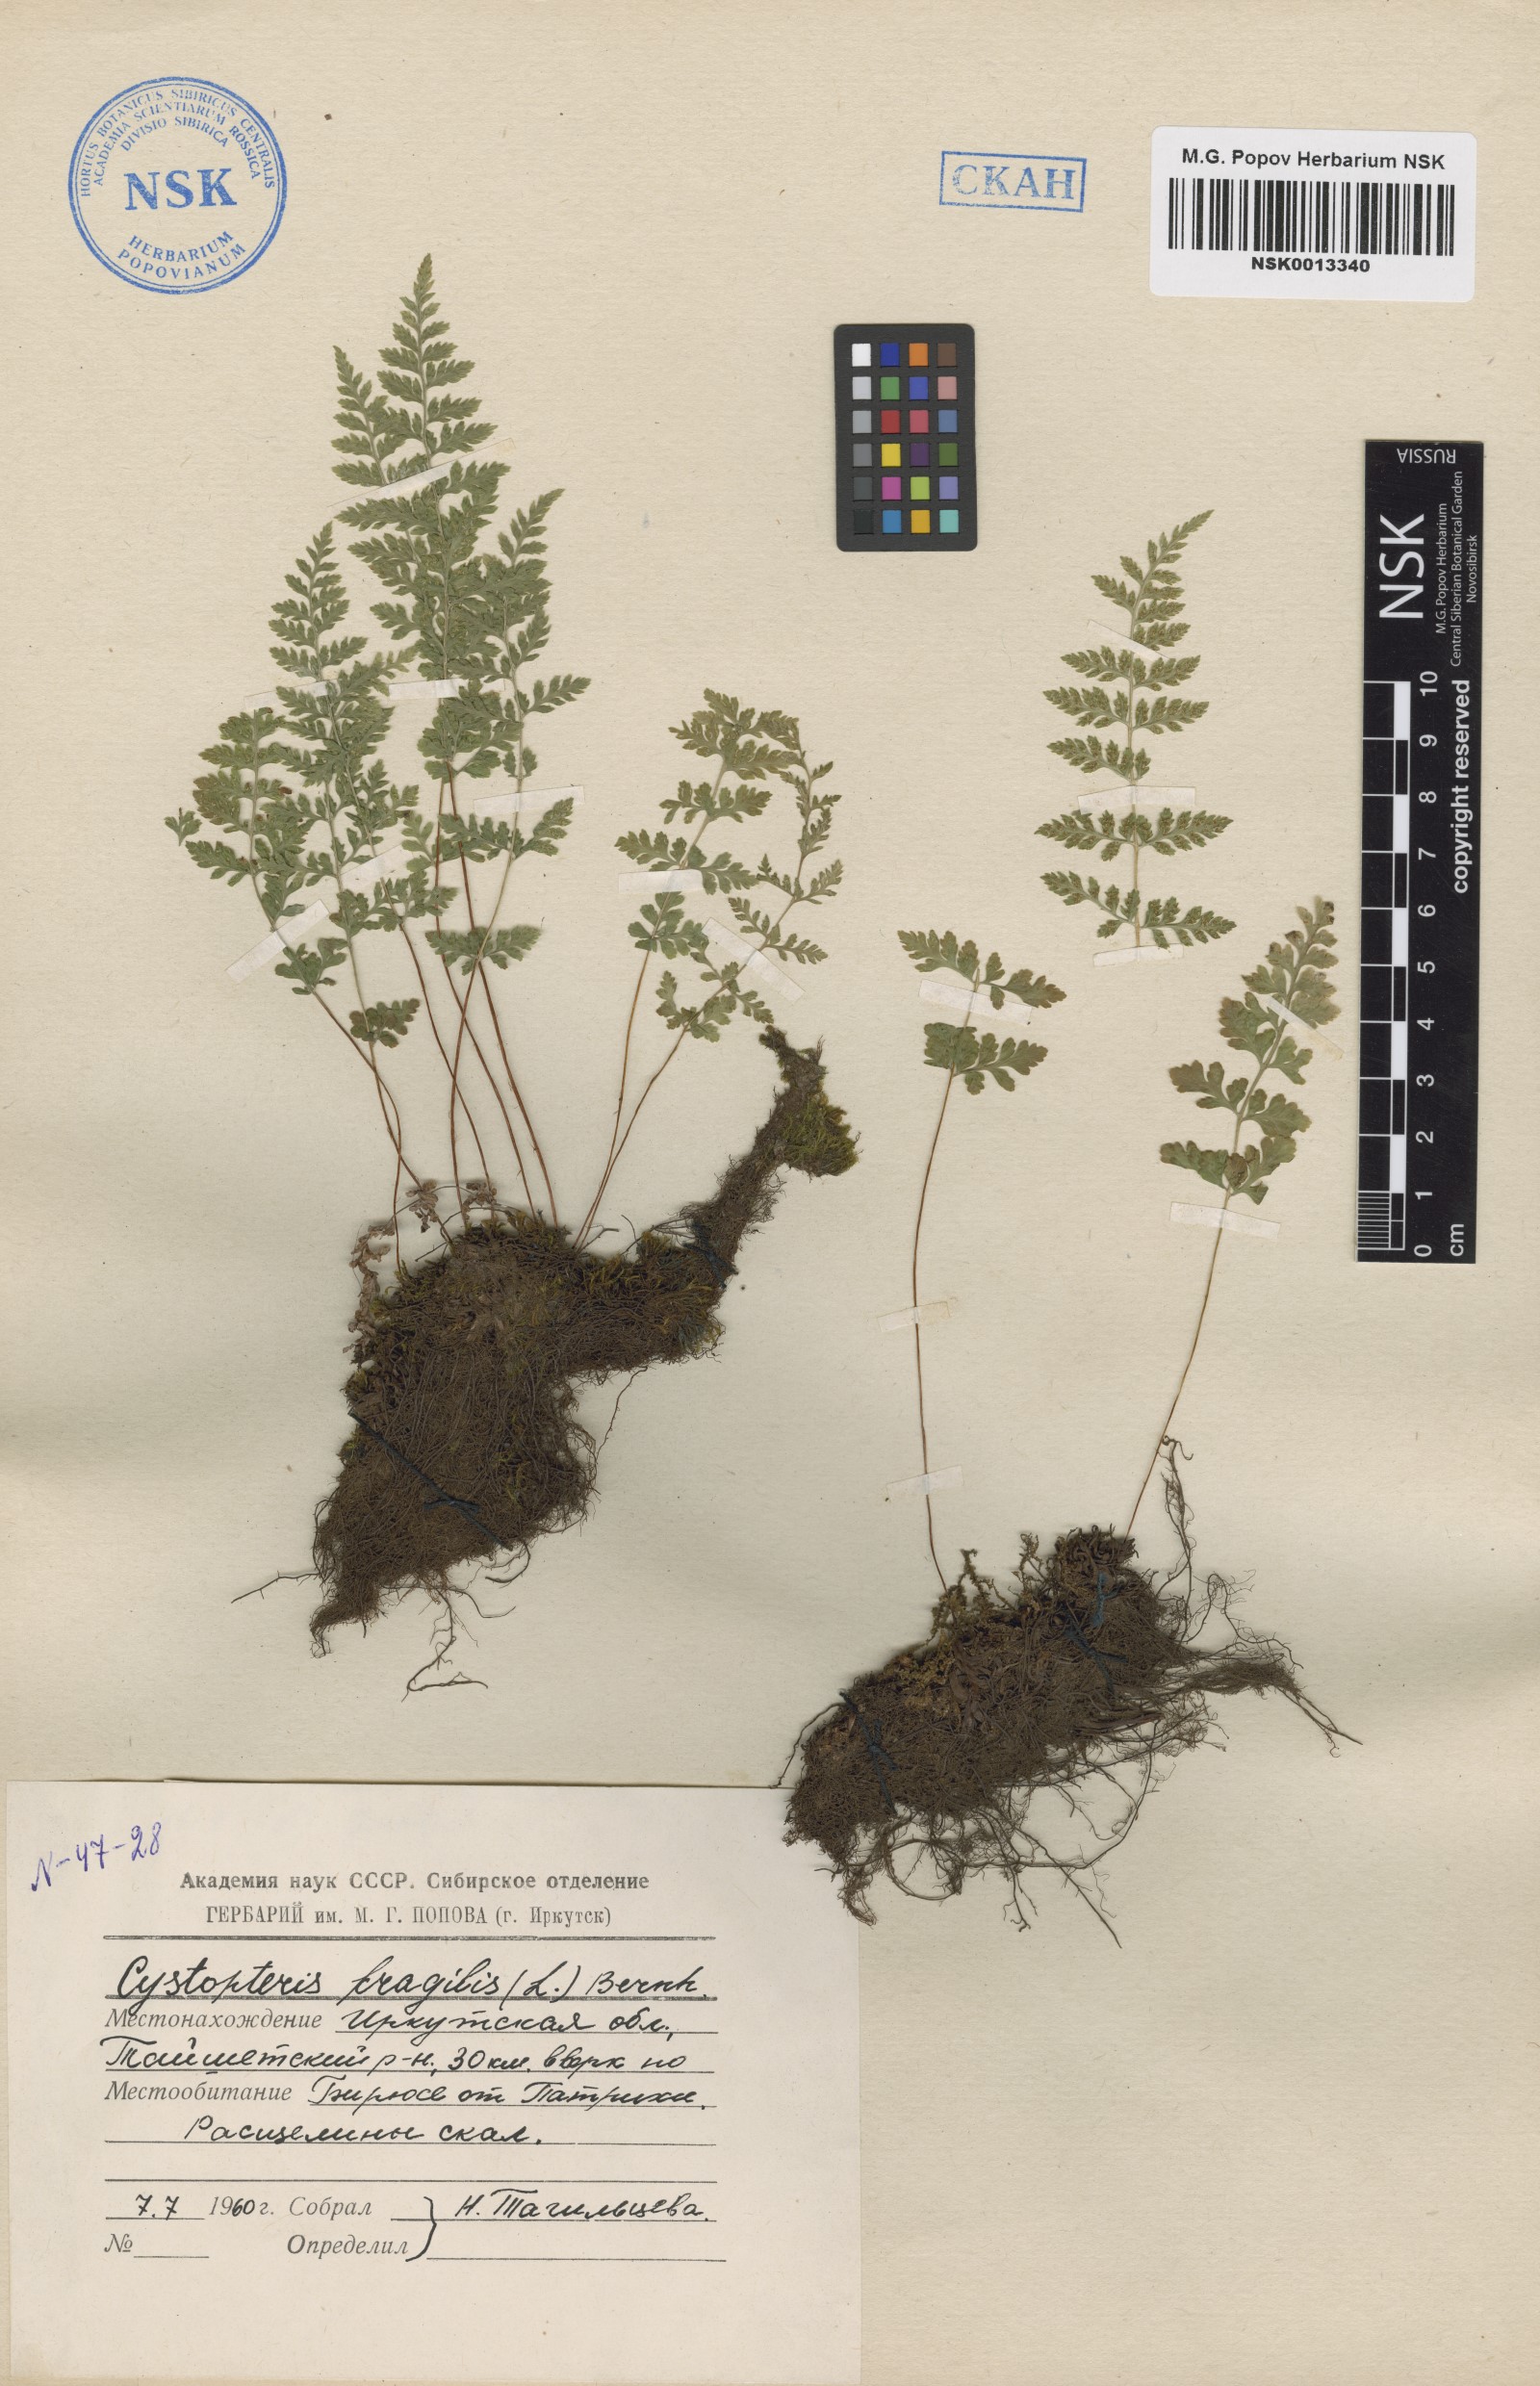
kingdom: Plantae
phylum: Tracheophyta
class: Polypodiopsida
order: Polypodiales
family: Cystopteridaceae
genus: Cystopteris
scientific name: Cystopteris fragilis
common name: Brittle bladder fern
